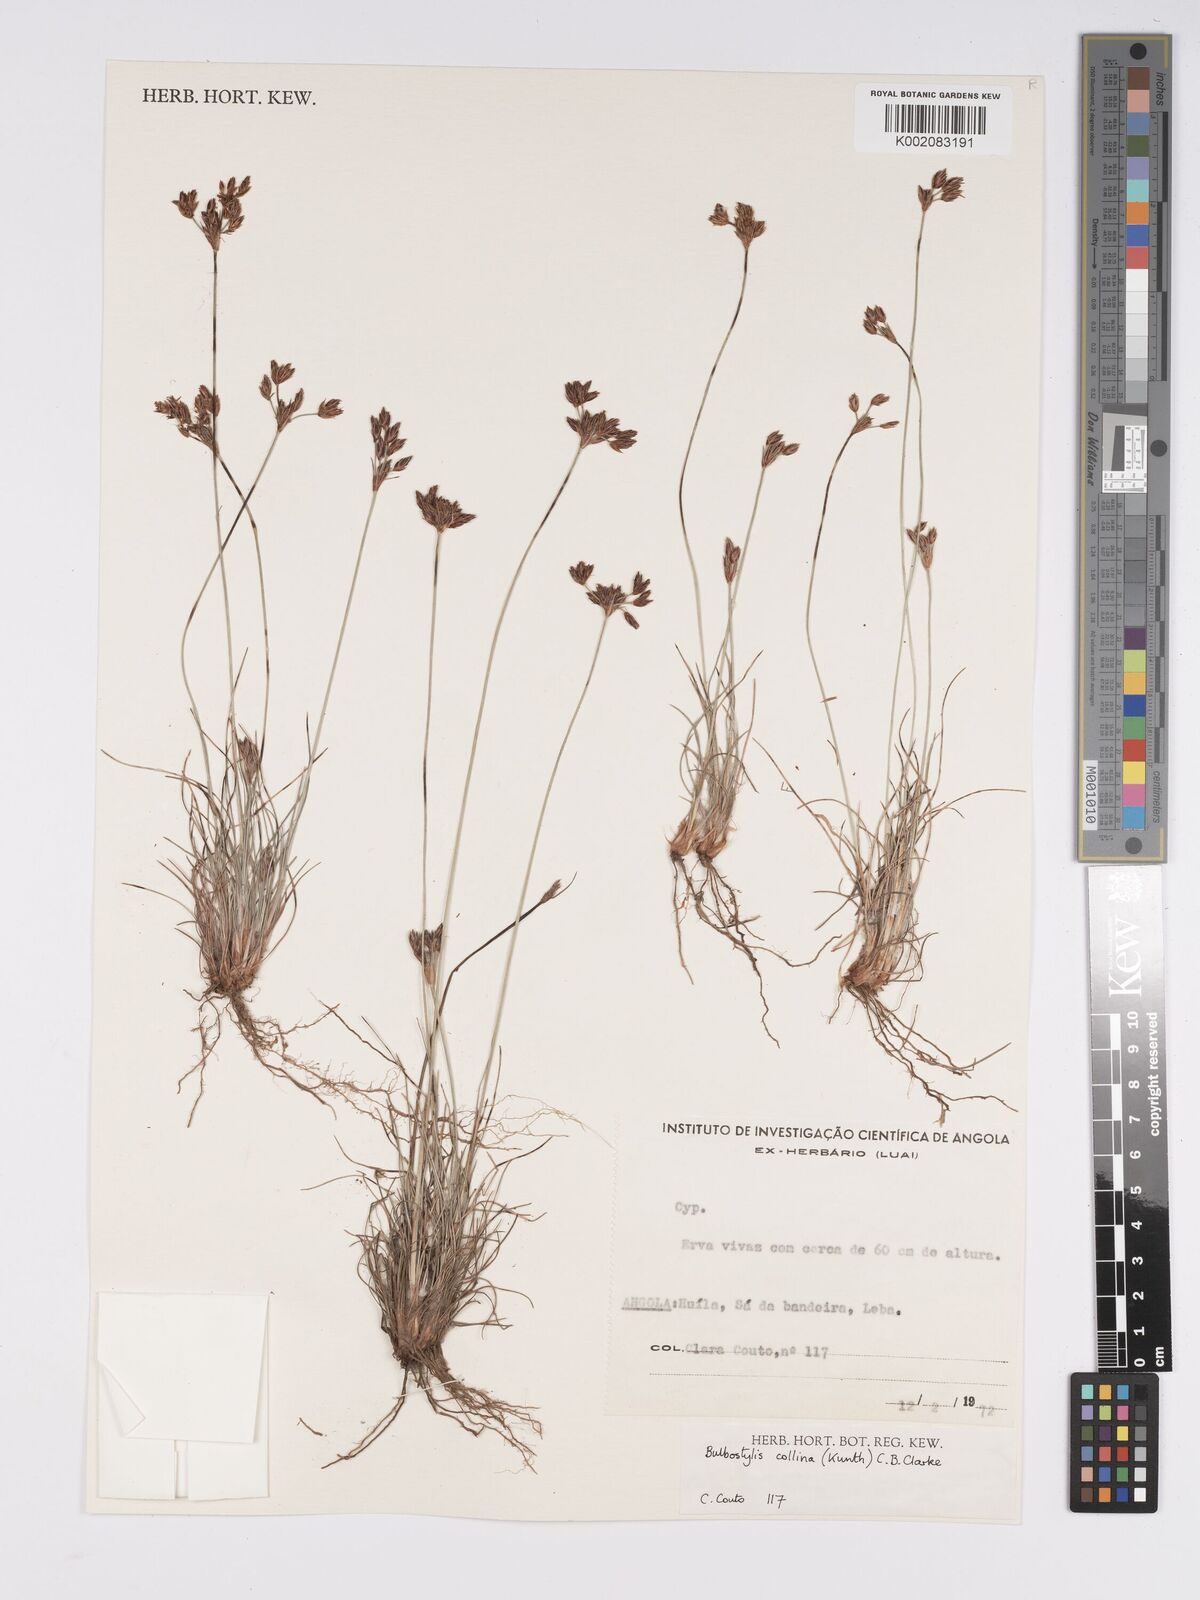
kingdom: Plantae
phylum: Tracheophyta
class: Liliopsida
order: Poales
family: Cyperaceae
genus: Bulbostylis
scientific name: Bulbostylis contexta
